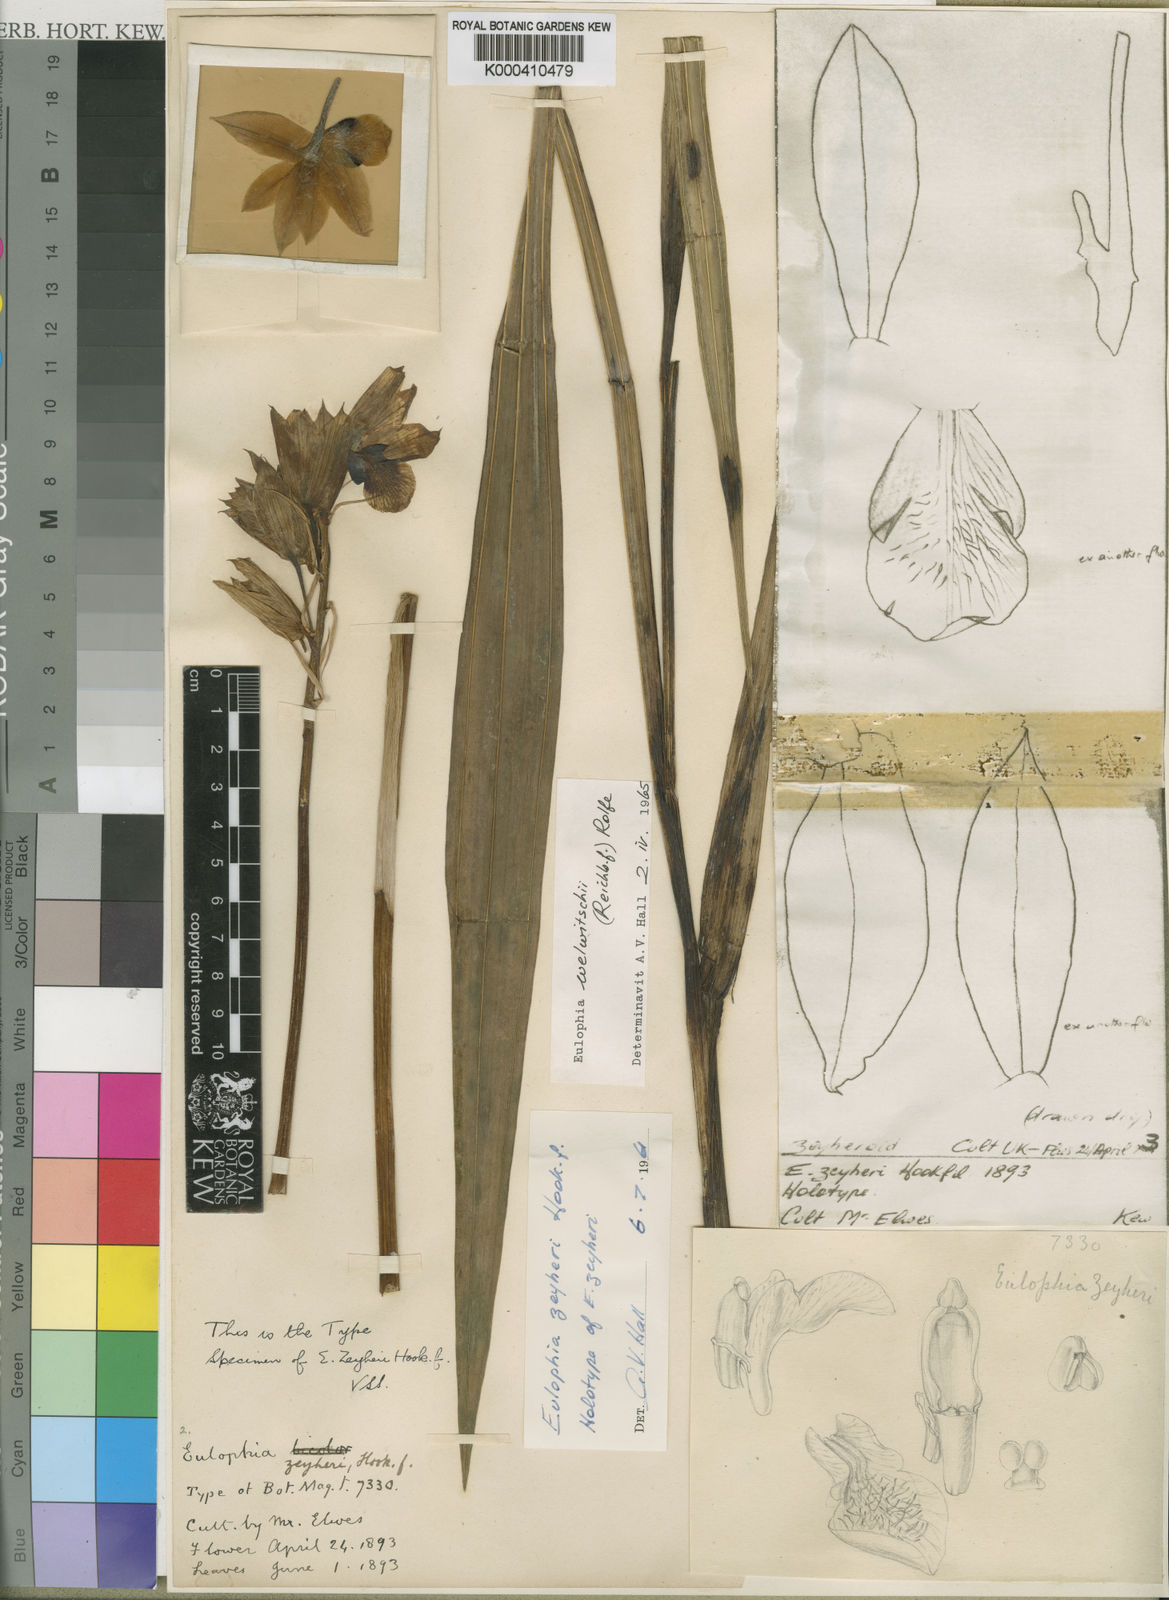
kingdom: Plantae
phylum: Tracheophyta
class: Liliopsida
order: Asparagales
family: Orchidaceae
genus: Eulophia
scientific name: Eulophia welwitschii
